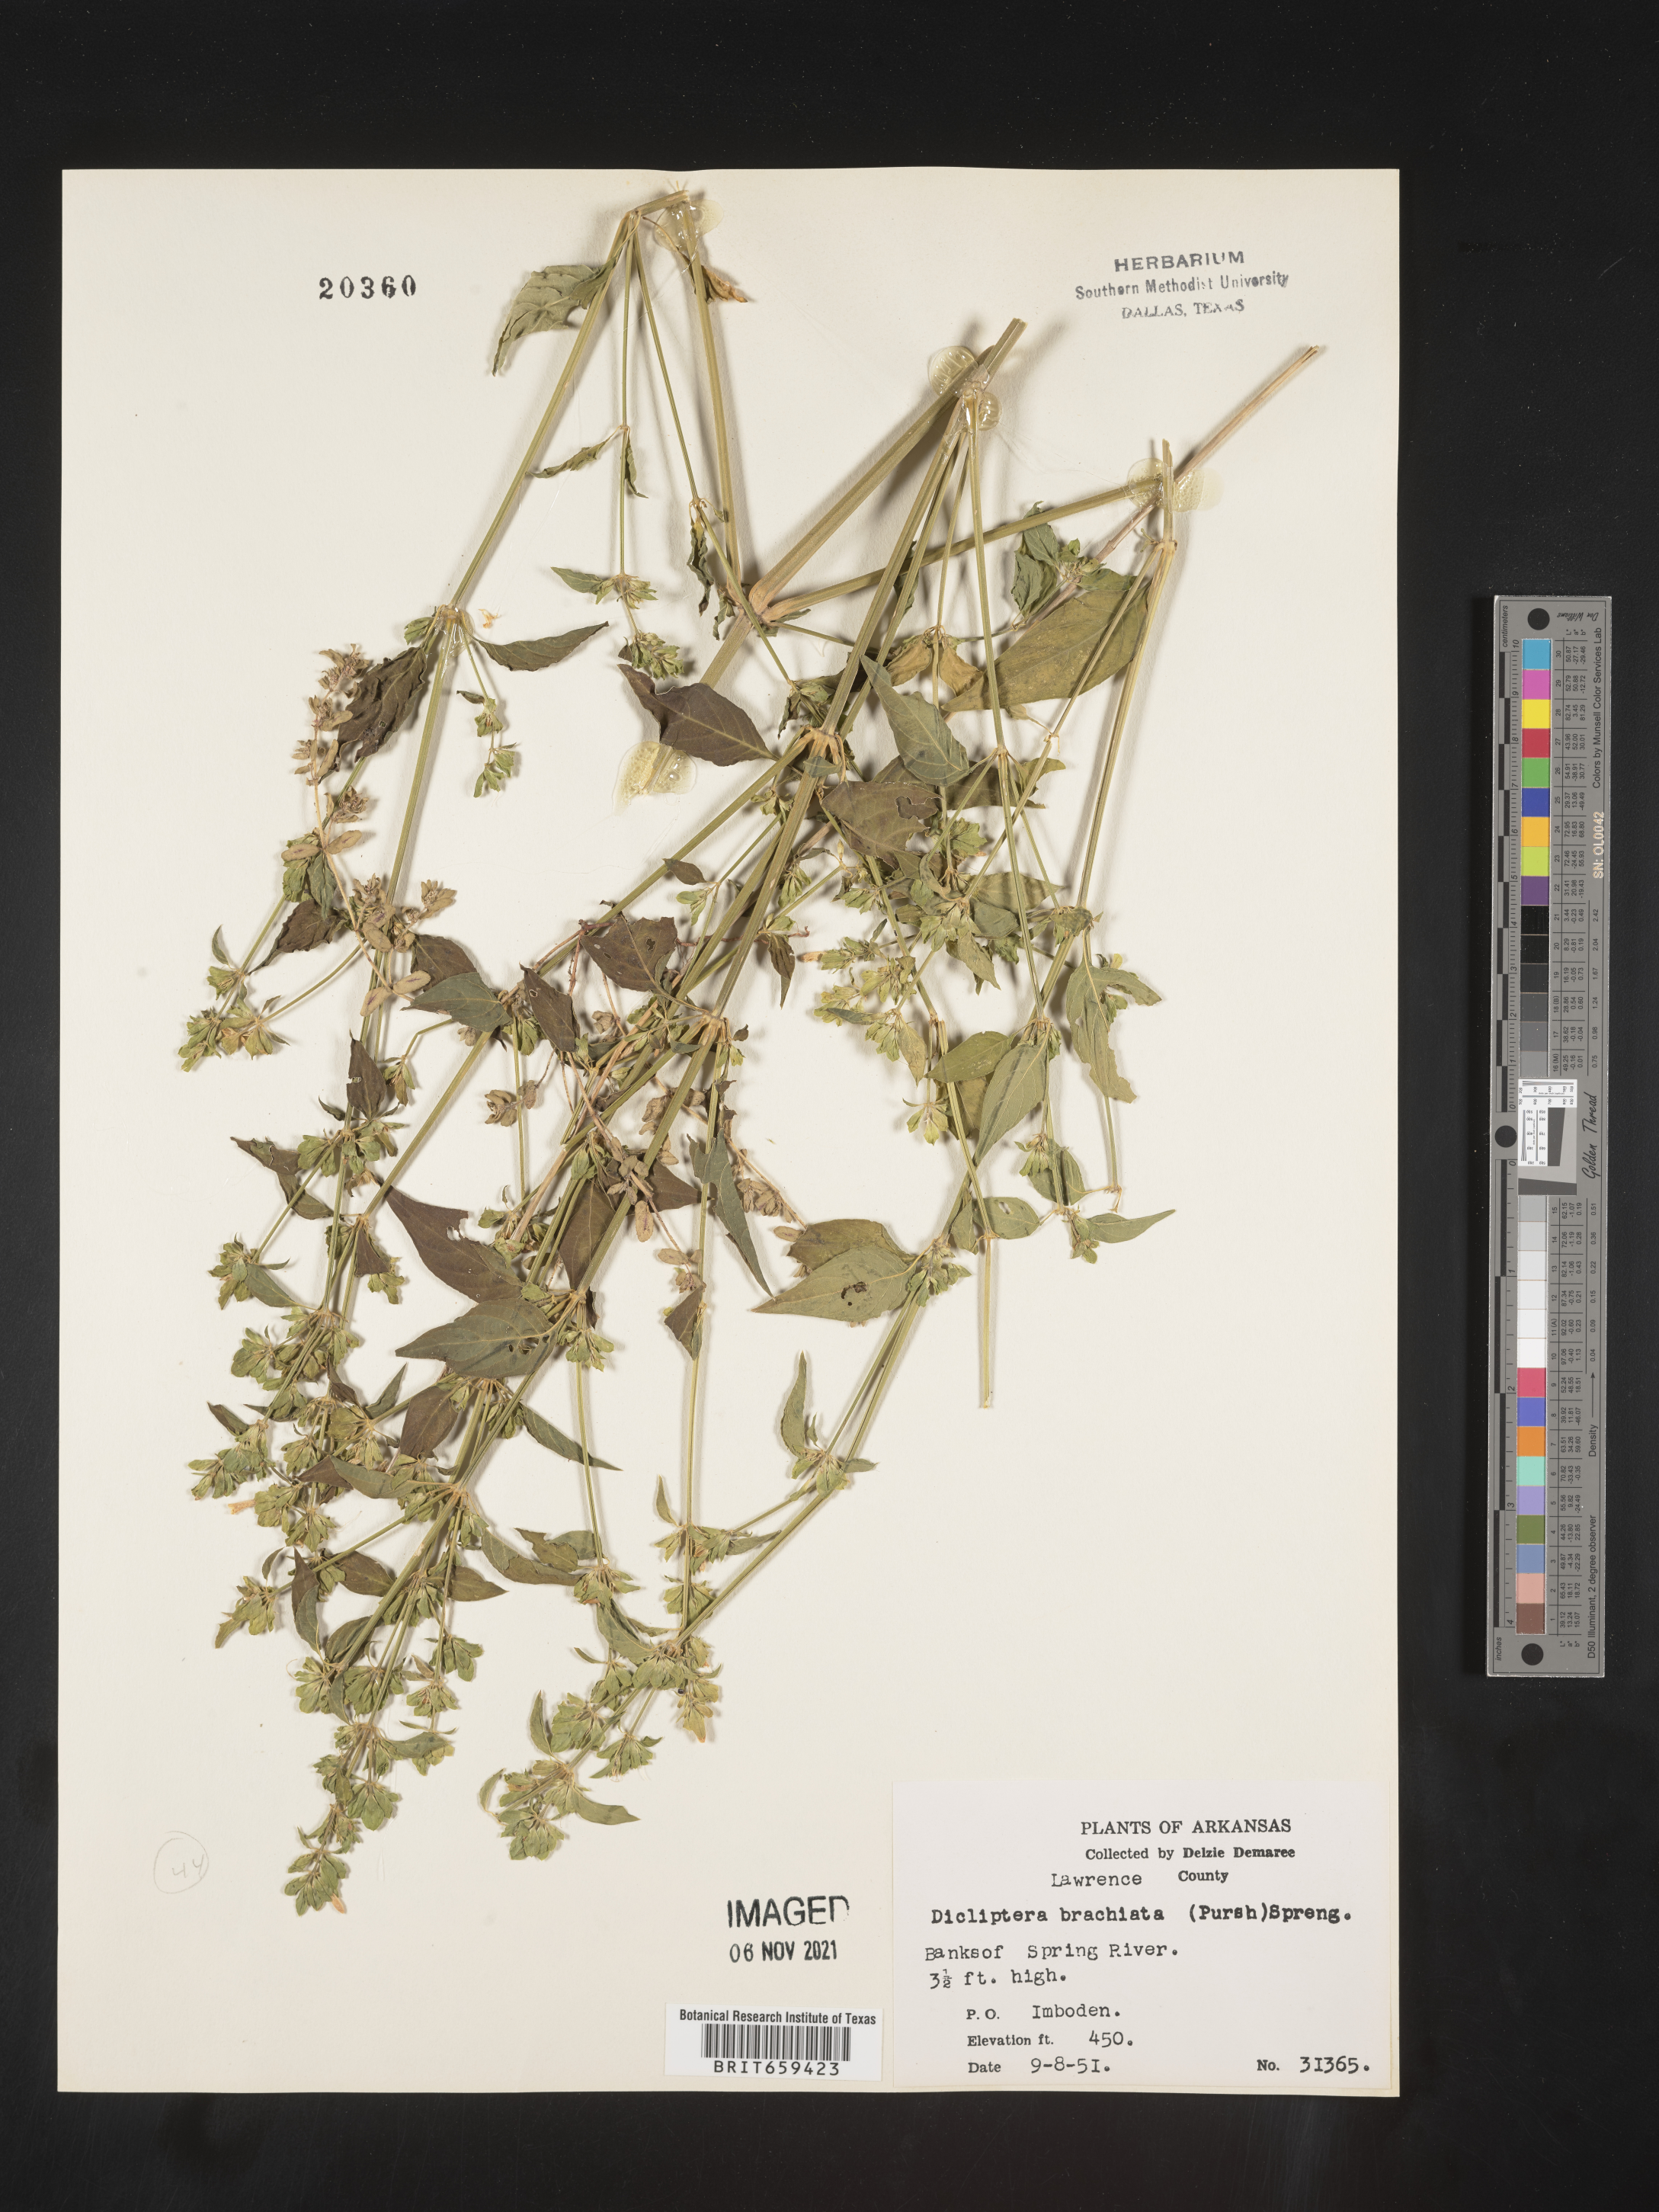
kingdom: Plantae
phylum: Tracheophyta
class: Magnoliopsida
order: Lamiales
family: Acanthaceae
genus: Dicliptera
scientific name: Dicliptera brachiata
